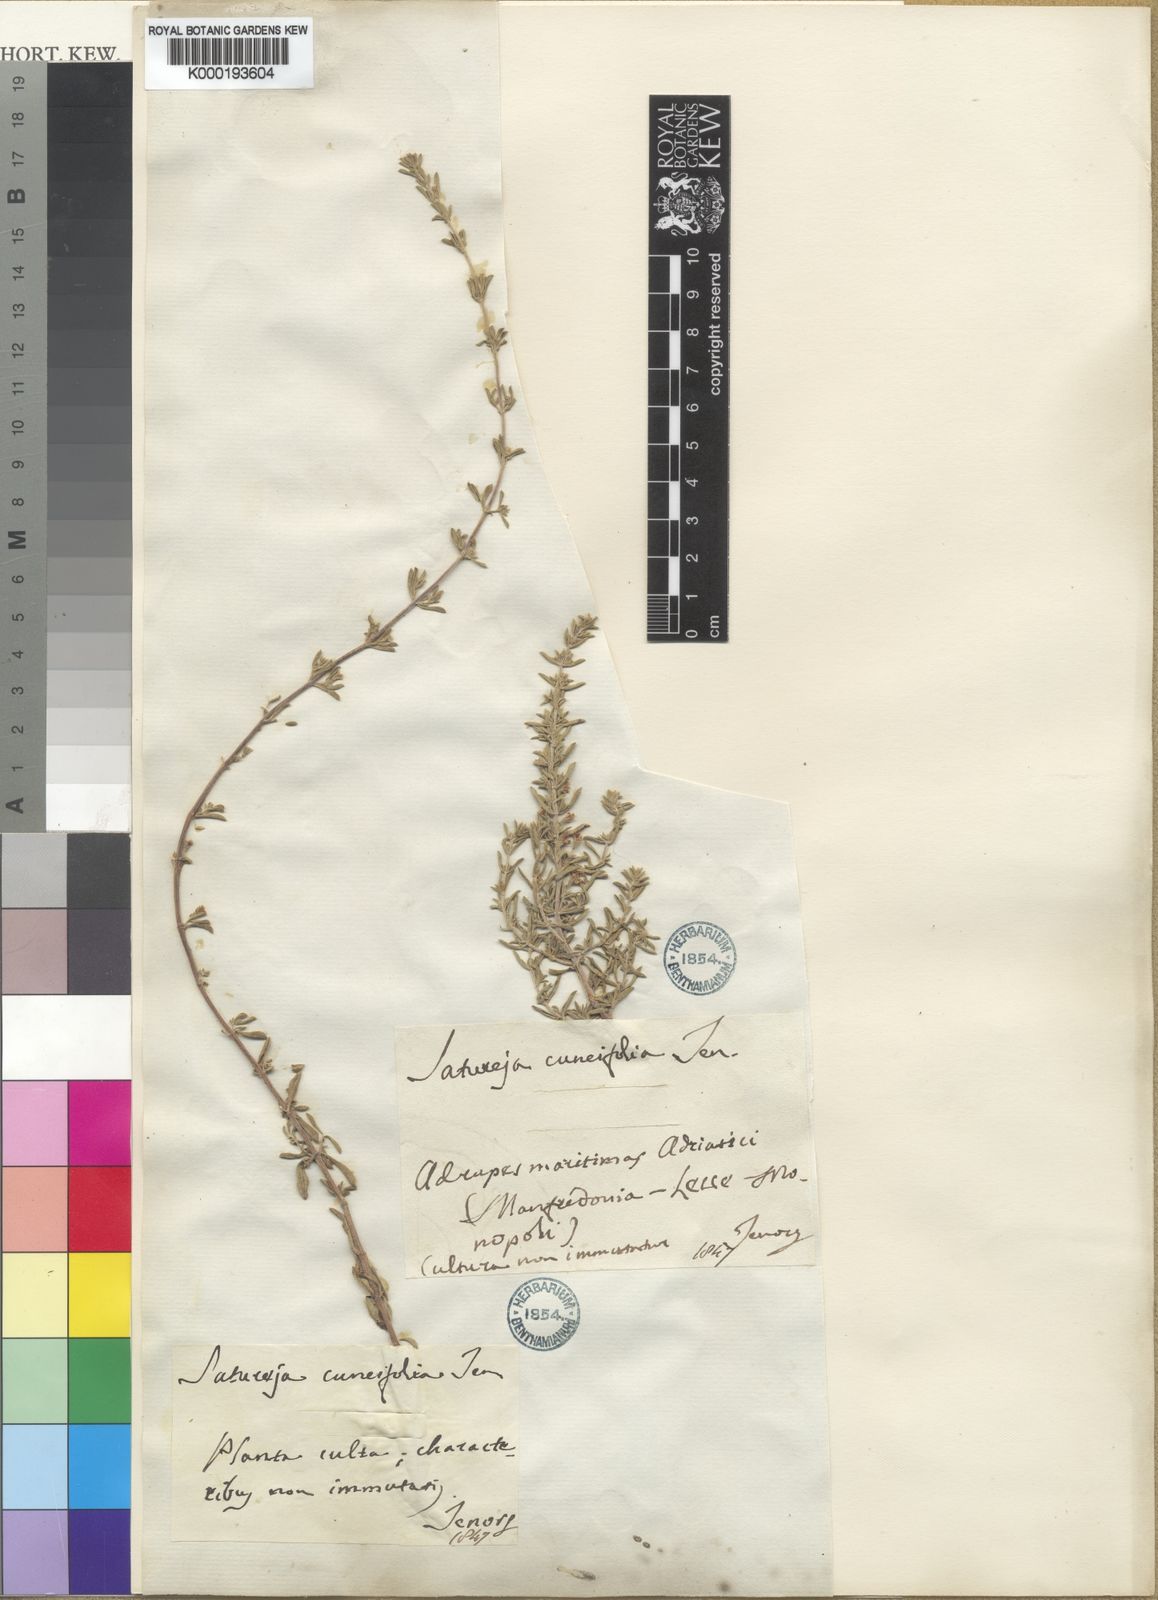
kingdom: Plantae
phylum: Tracheophyta
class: Magnoliopsida
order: Lamiales
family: Lamiaceae
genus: Satureja
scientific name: Satureja cuneifolia
